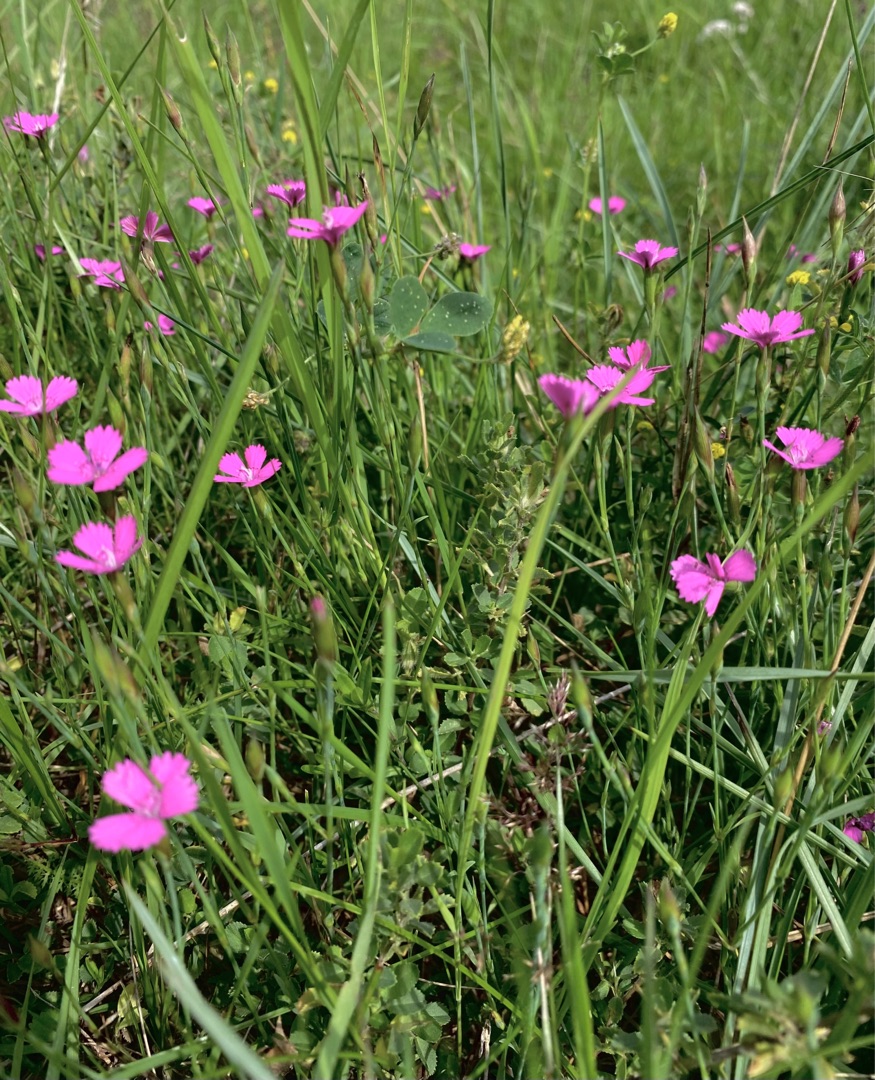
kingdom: Plantae
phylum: Tracheophyta
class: Magnoliopsida
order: Caryophyllales
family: Caryophyllaceae
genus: Dianthus
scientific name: Dianthus deltoides
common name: Bakke-nellike
